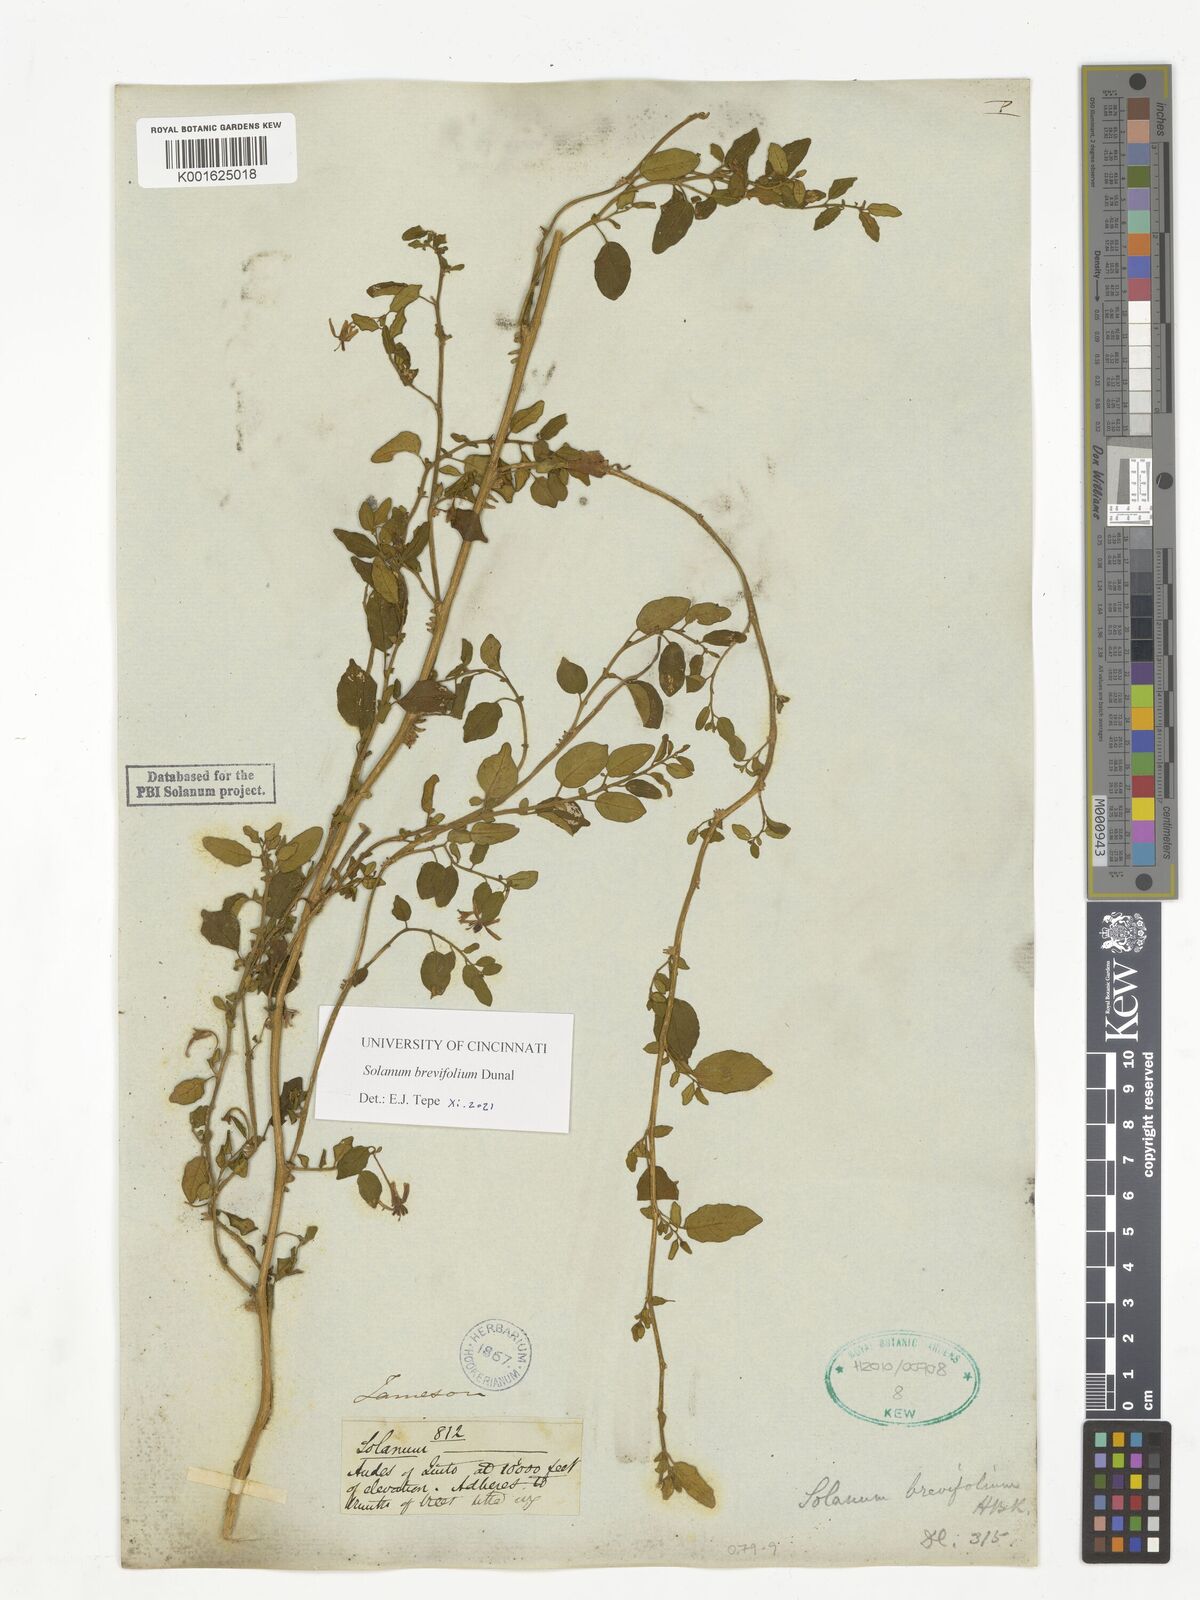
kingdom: Plantae
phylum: Tracheophyta
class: Magnoliopsida
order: Solanales
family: Solanaceae
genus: Solanum
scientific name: Solanum brevifolium
